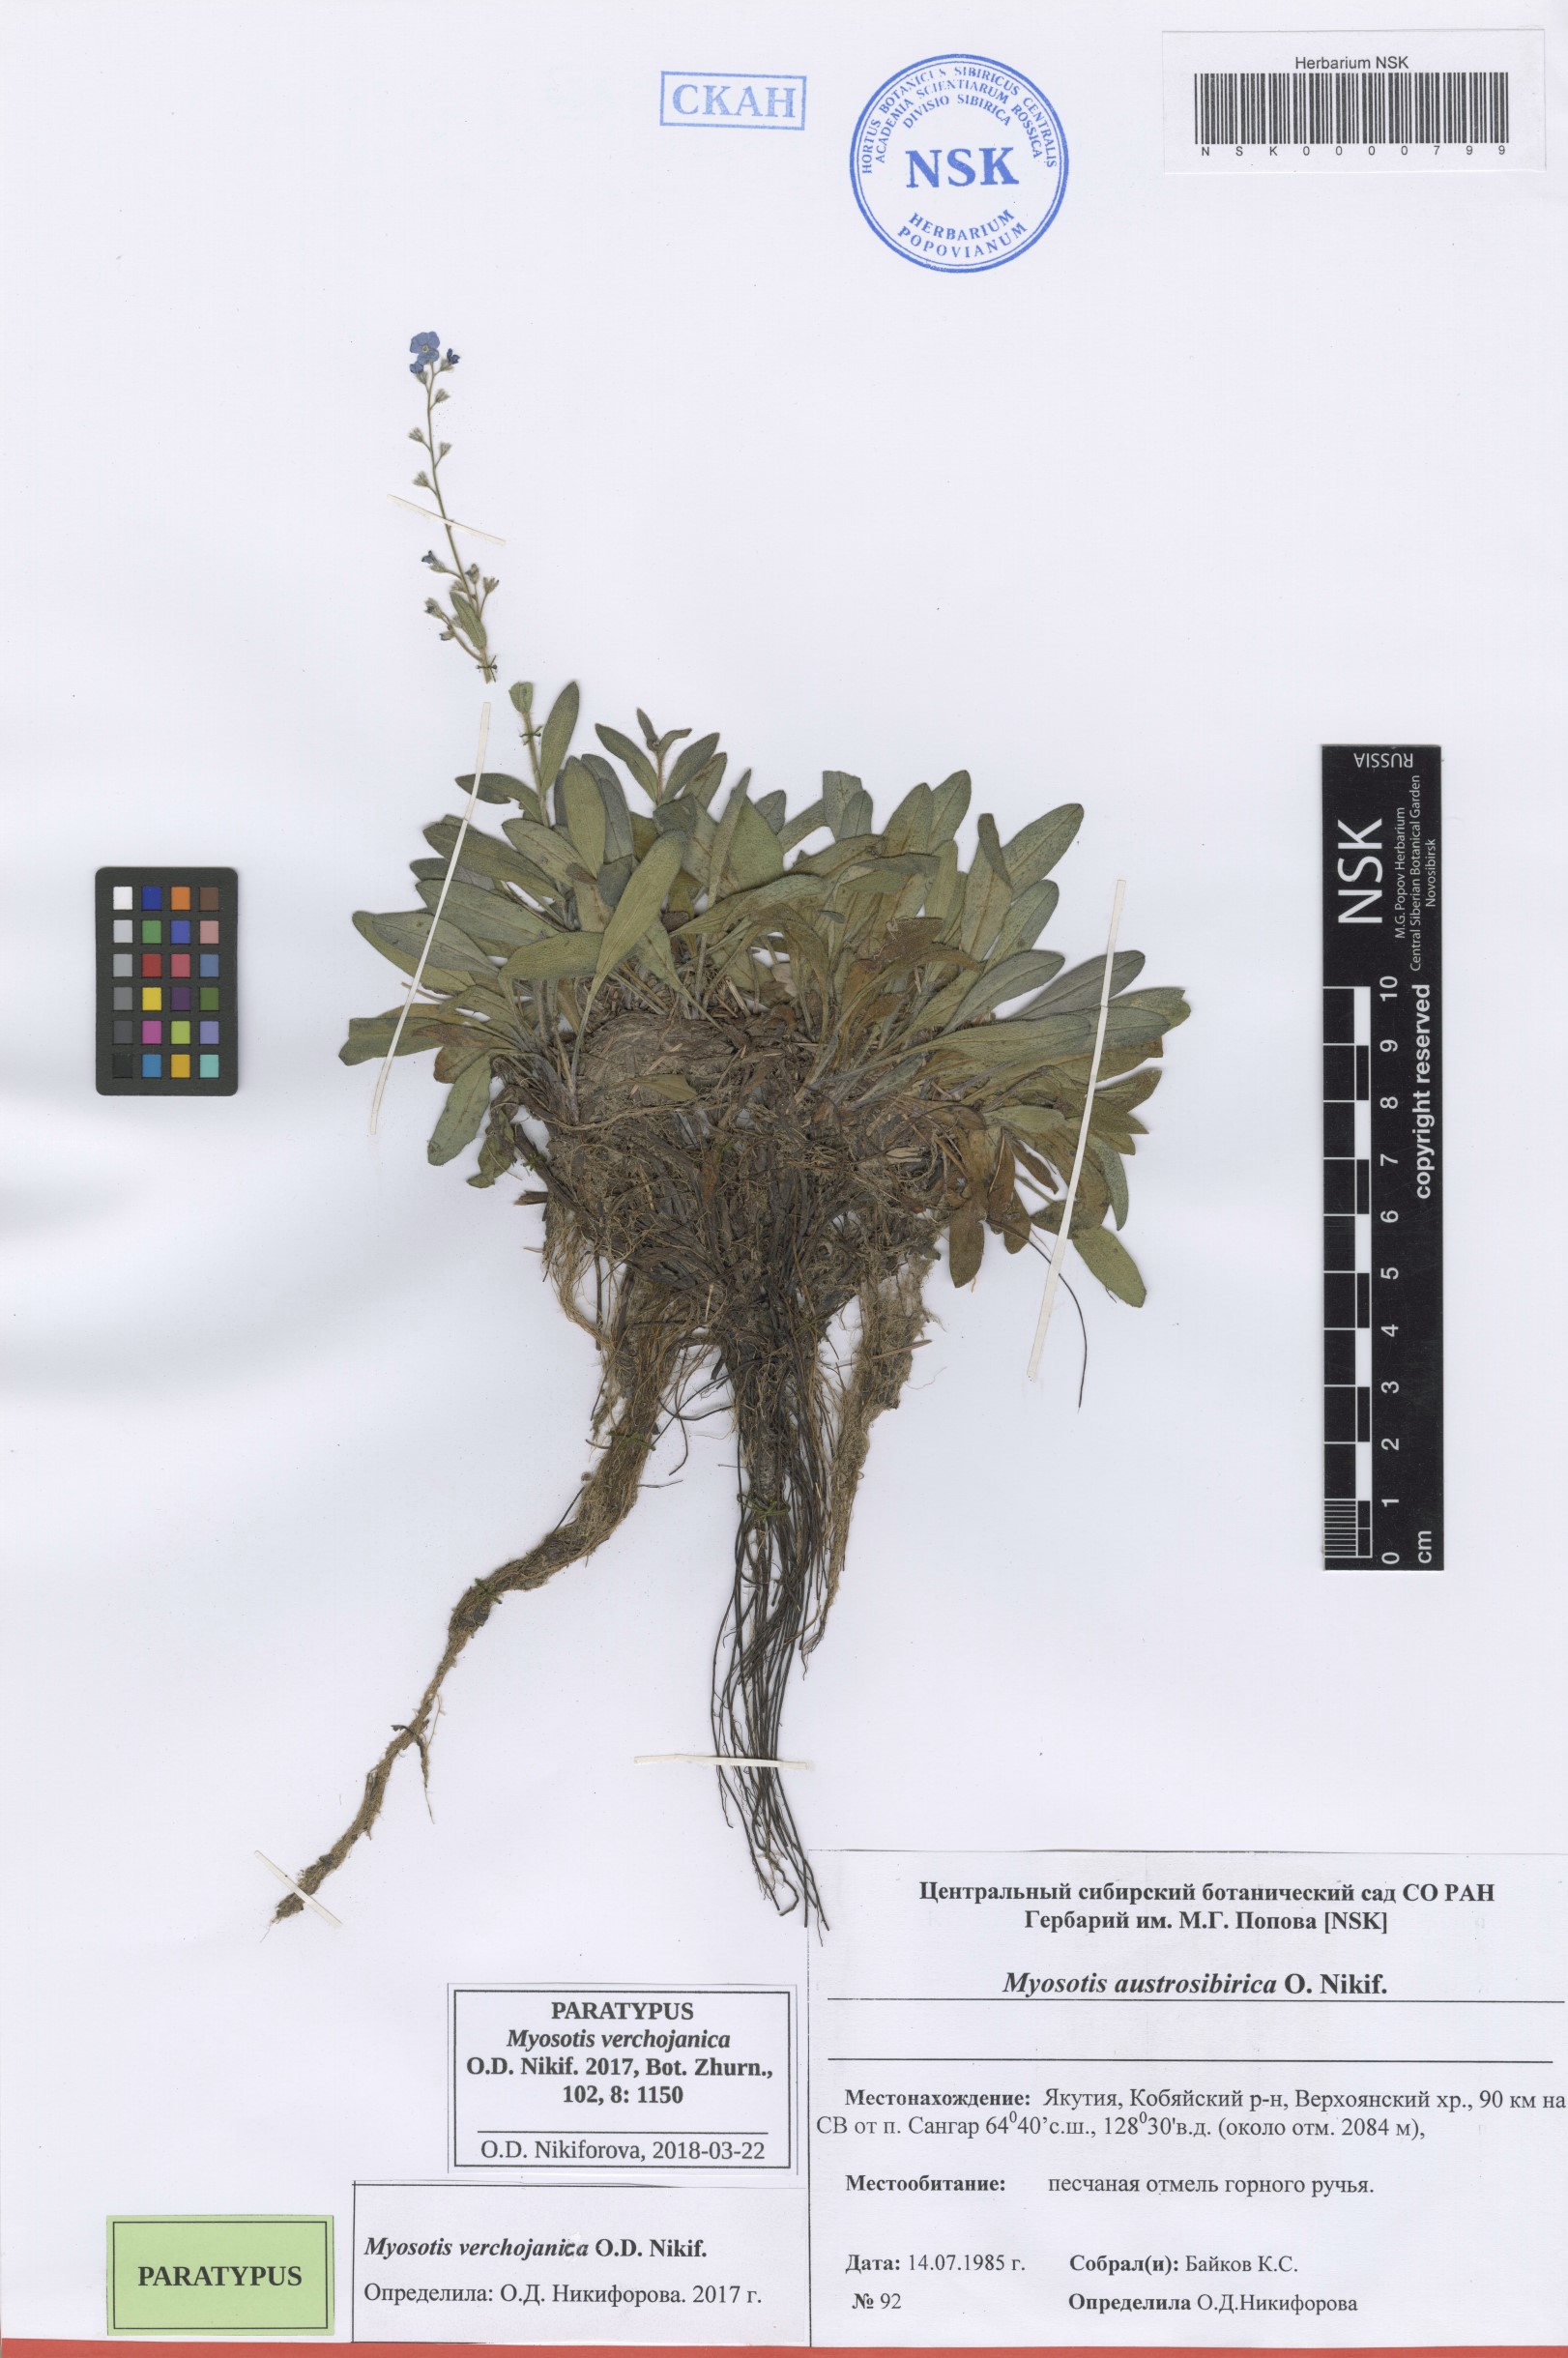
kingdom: Plantae
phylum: Tracheophyta
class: Magnoliopsida
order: Boraginales
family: Boraginaceae
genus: Myosotis
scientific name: Myosotis
